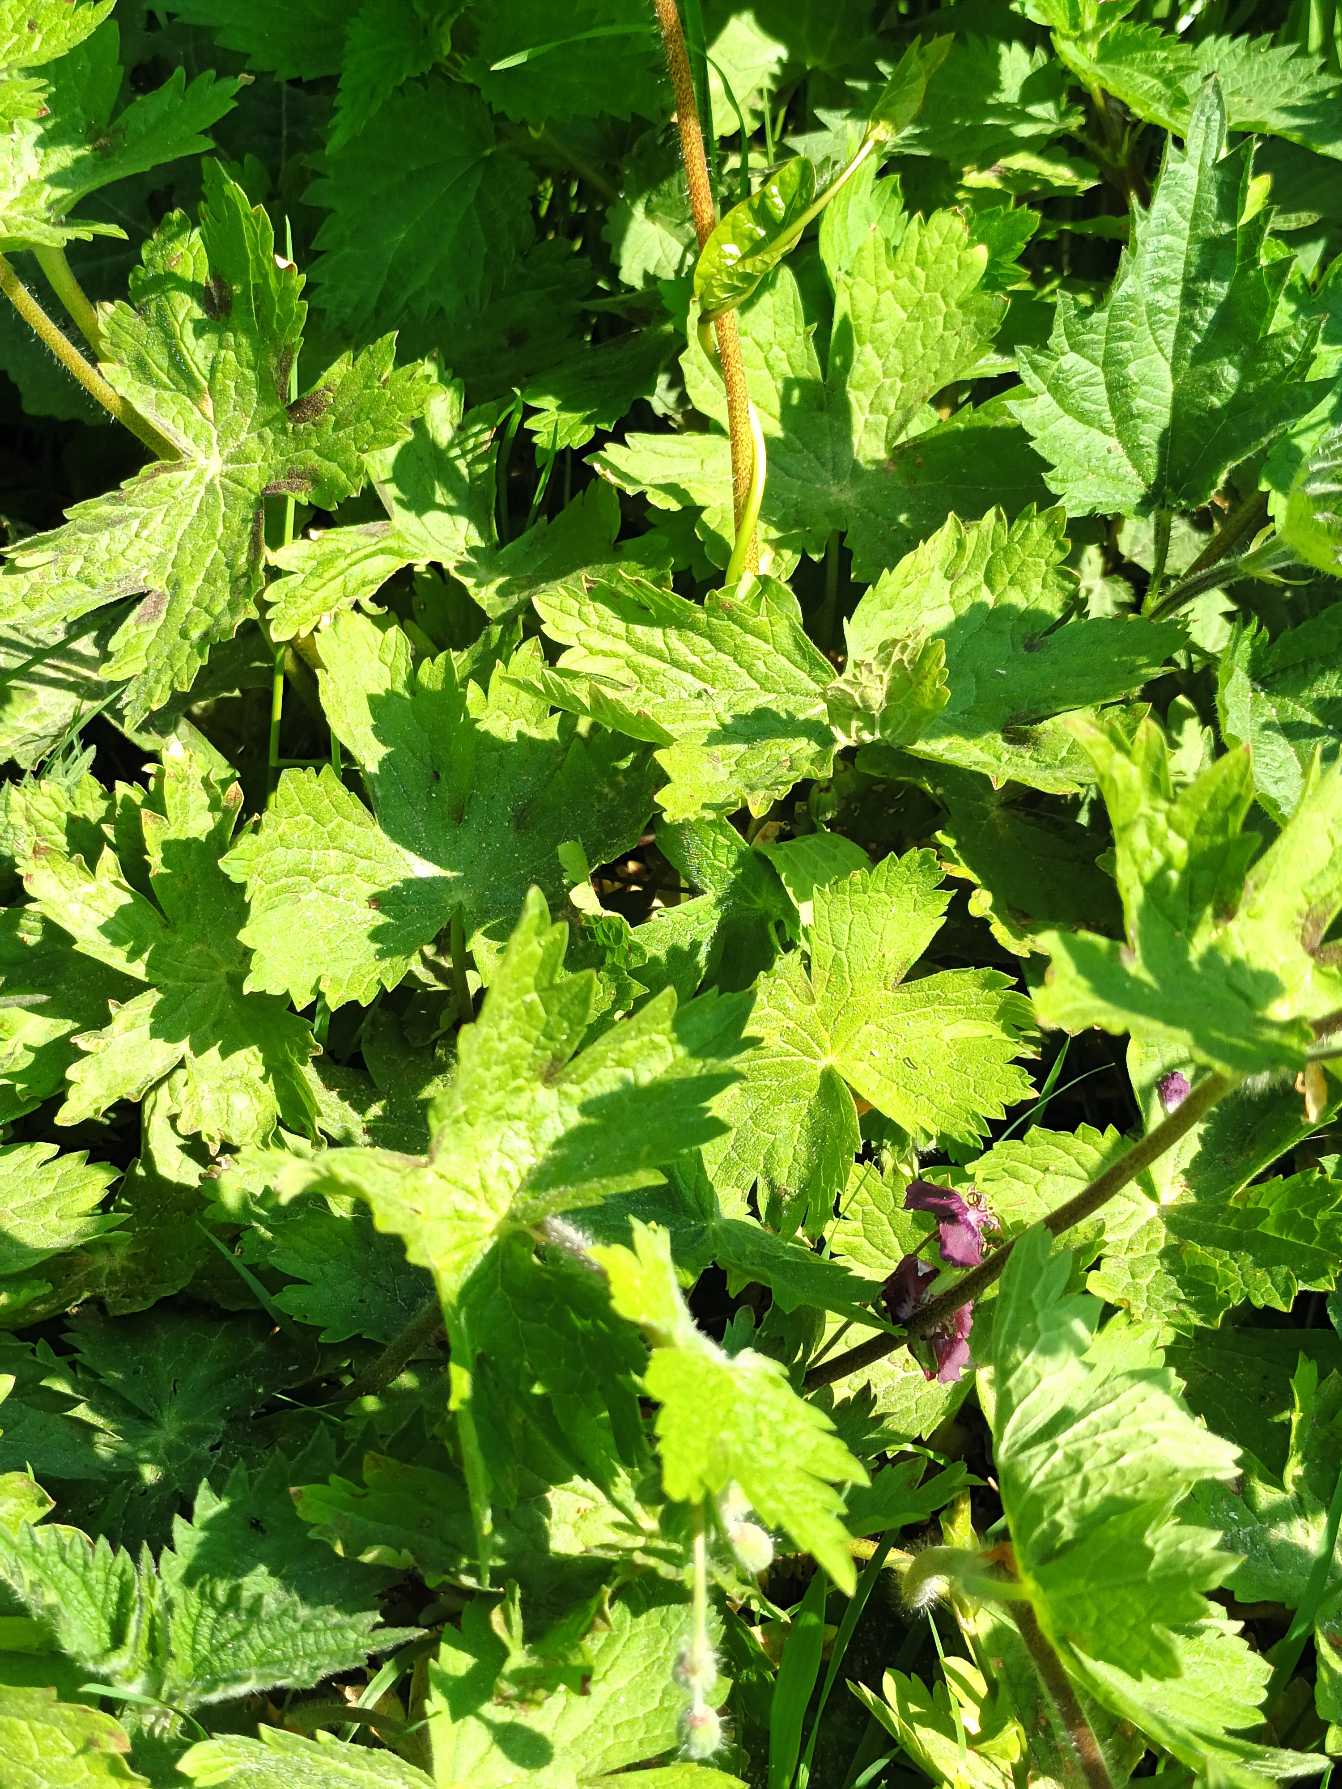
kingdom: Plantae
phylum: Tracheophyta
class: Magnoliopsida
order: Geraniales
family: Geraniaceae
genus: Geranium
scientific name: Geranium phaeum
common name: Bølgekronet storkenæb
